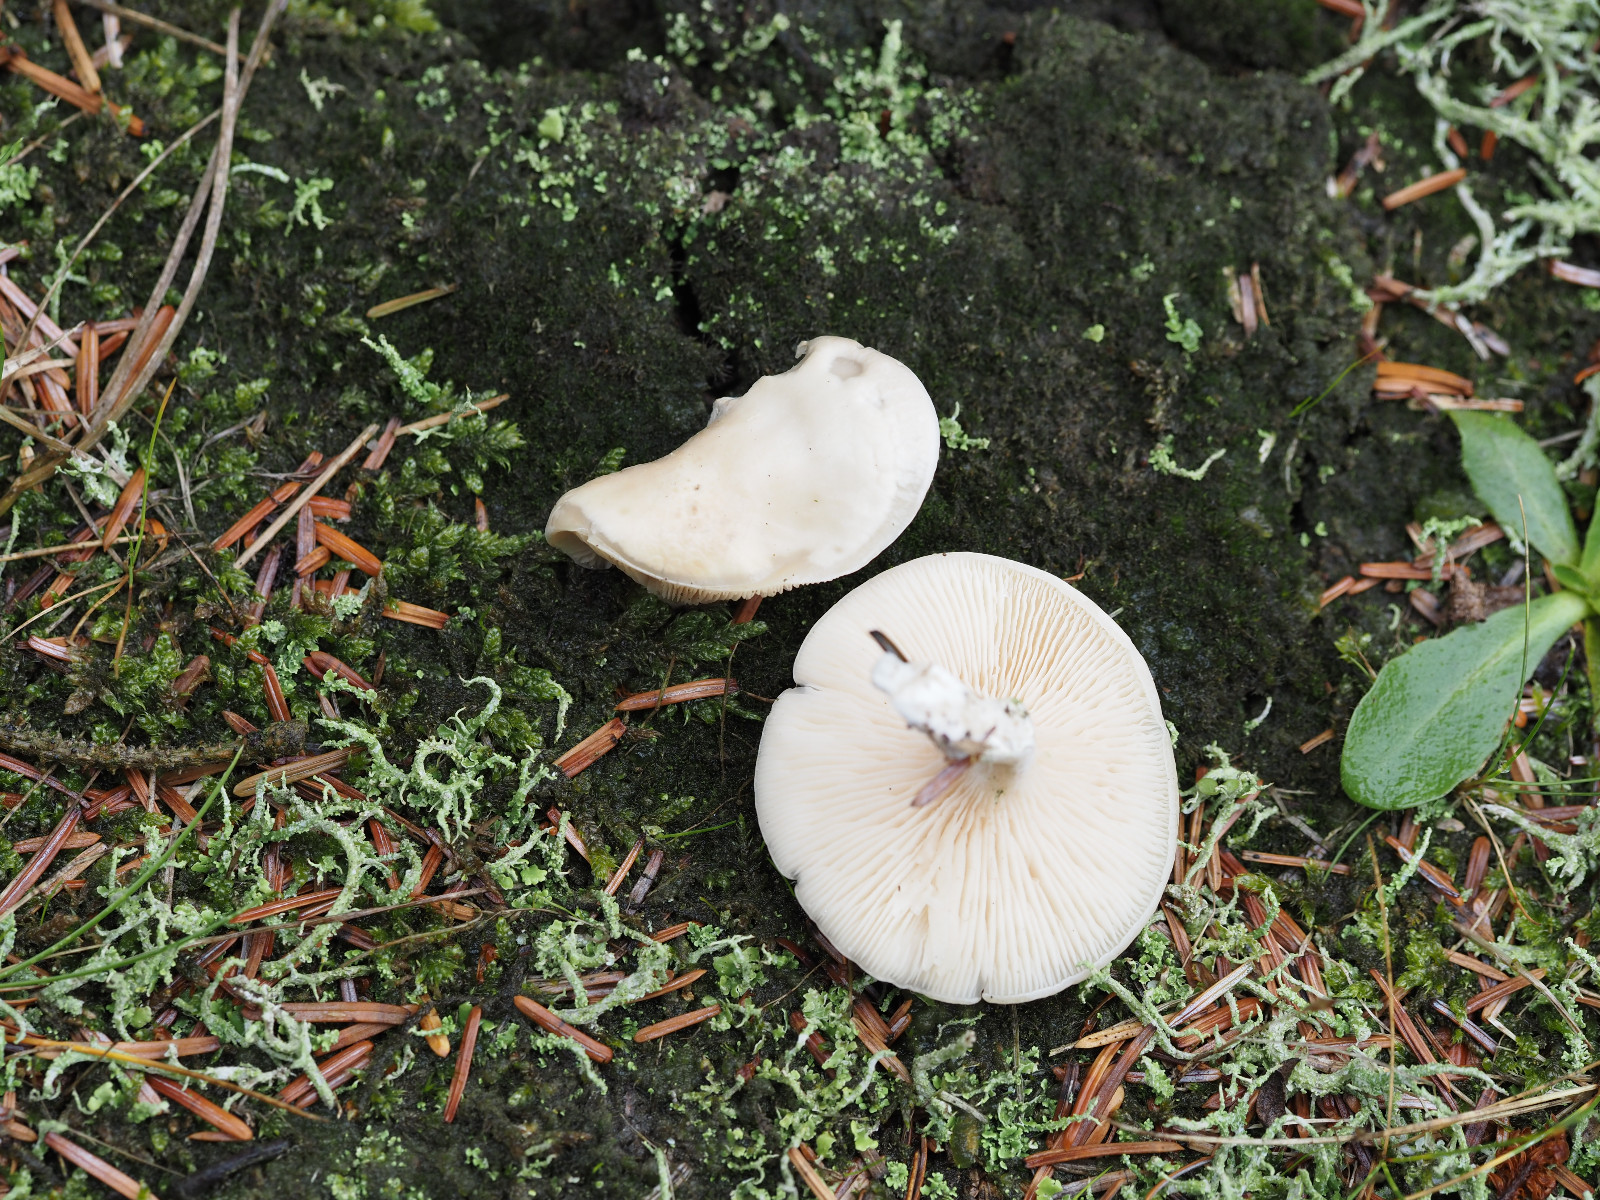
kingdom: Fungi
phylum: Basidiomycota
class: Agaricomycetes
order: Agaricales
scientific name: Agaricales
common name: champignonordenen
